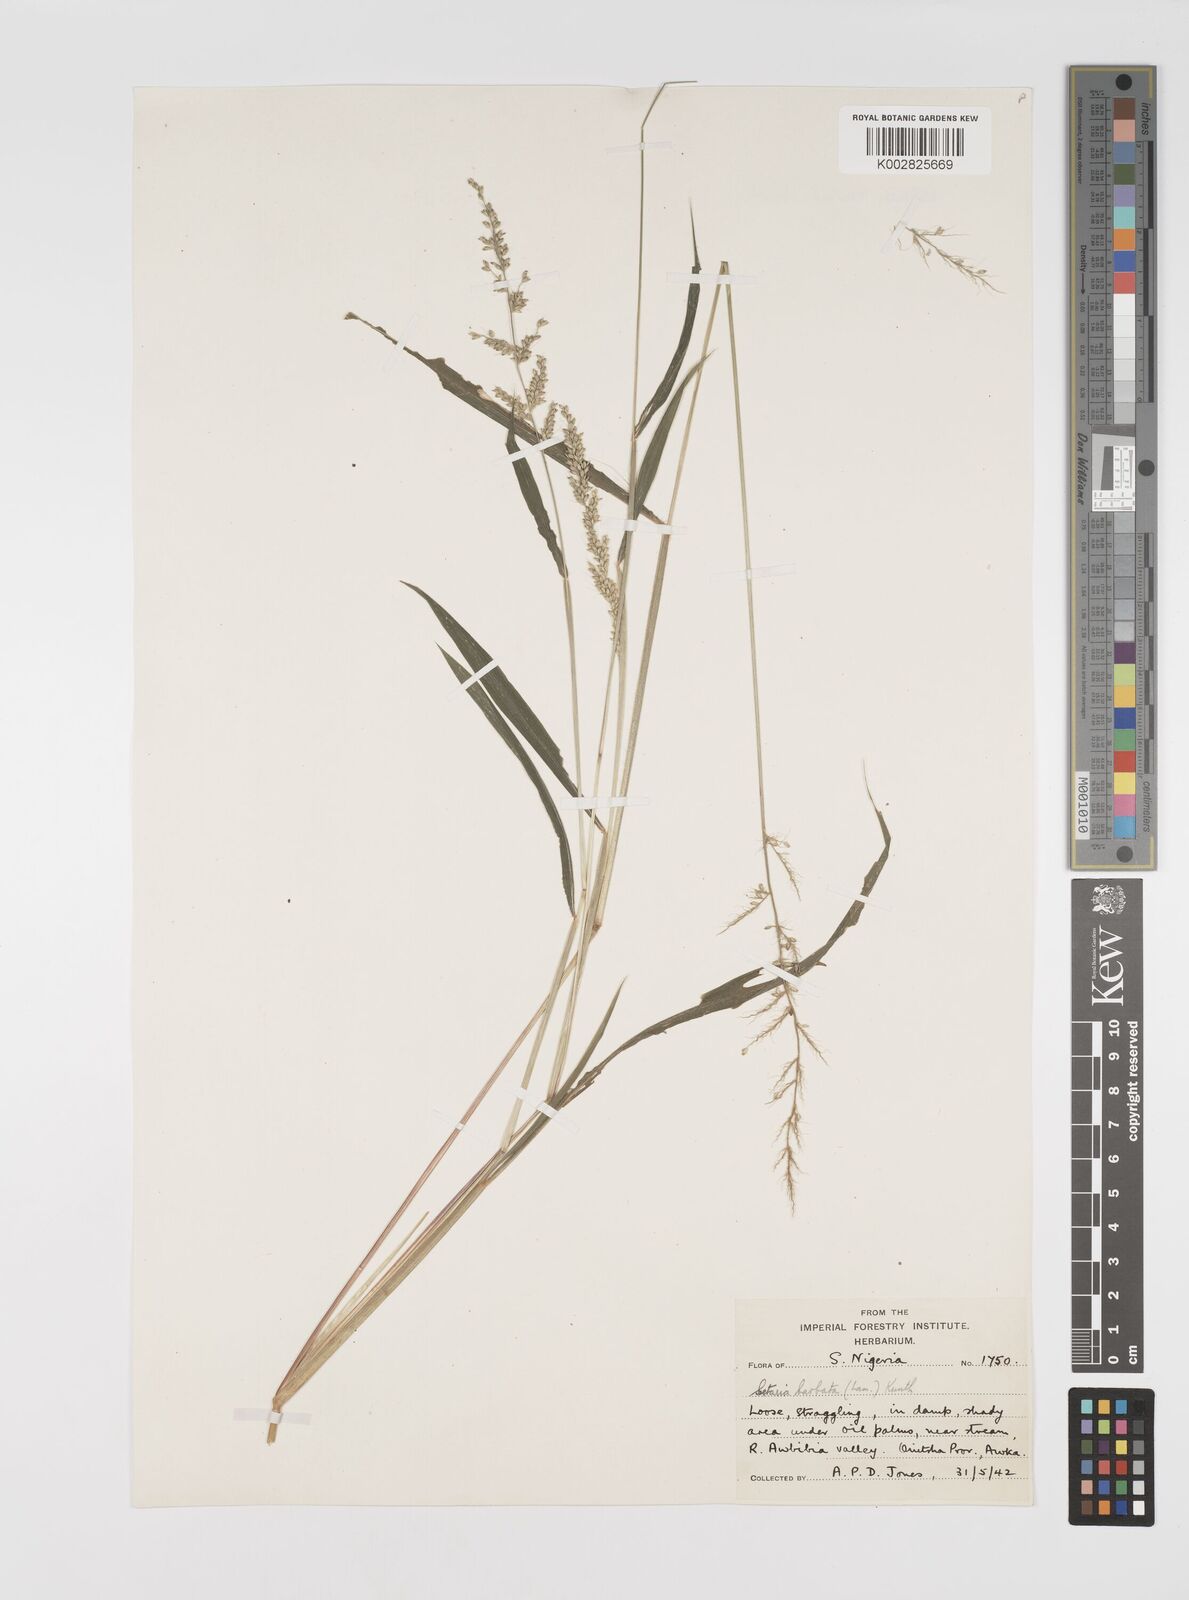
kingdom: Plantae
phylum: Tracheophyta
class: Liliopsida
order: Poales
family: Poaceae
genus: Setaria
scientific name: Setaria barbata
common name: East indian bristlegrass
